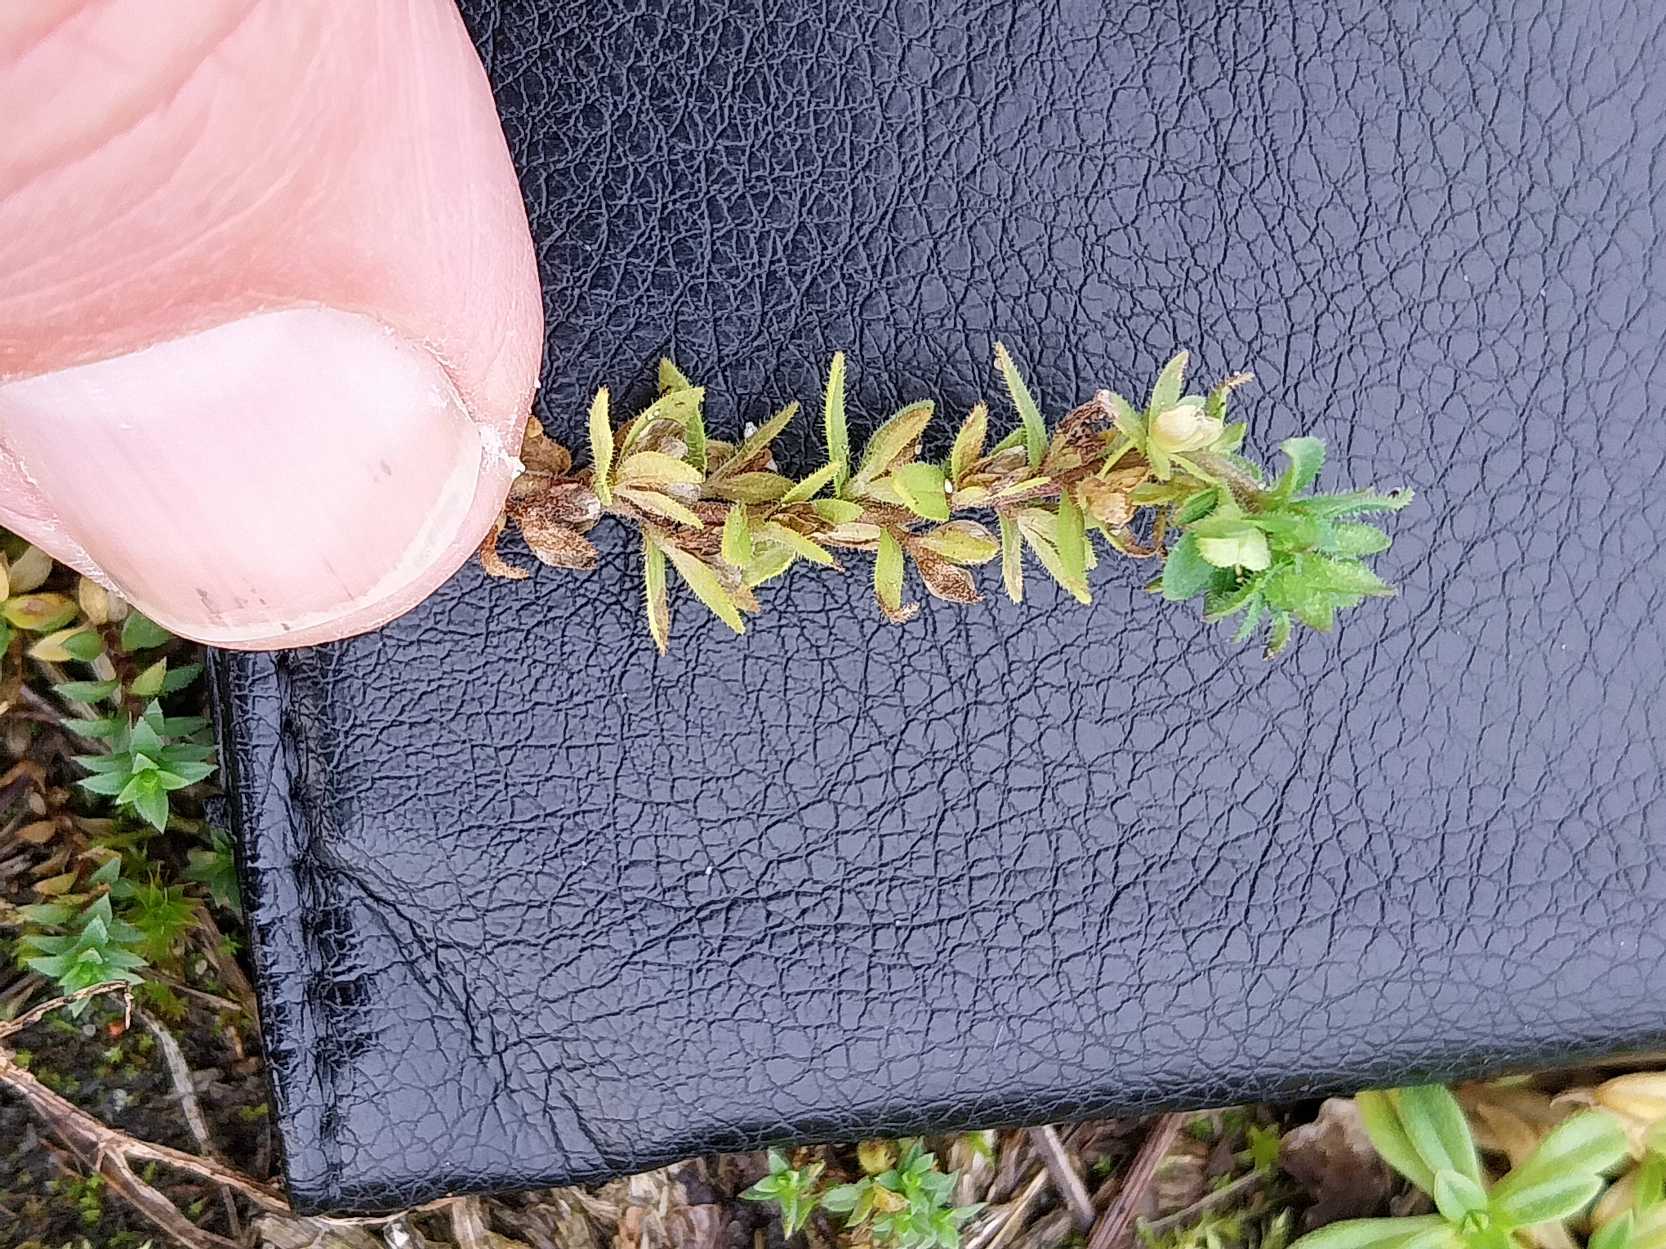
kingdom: Plantae
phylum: Tracheophyta
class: Magnoliopsida
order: Lamiales
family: Plantaginaceae
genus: Veronica
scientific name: Veronica arvensis
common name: Mark-ærenpris
